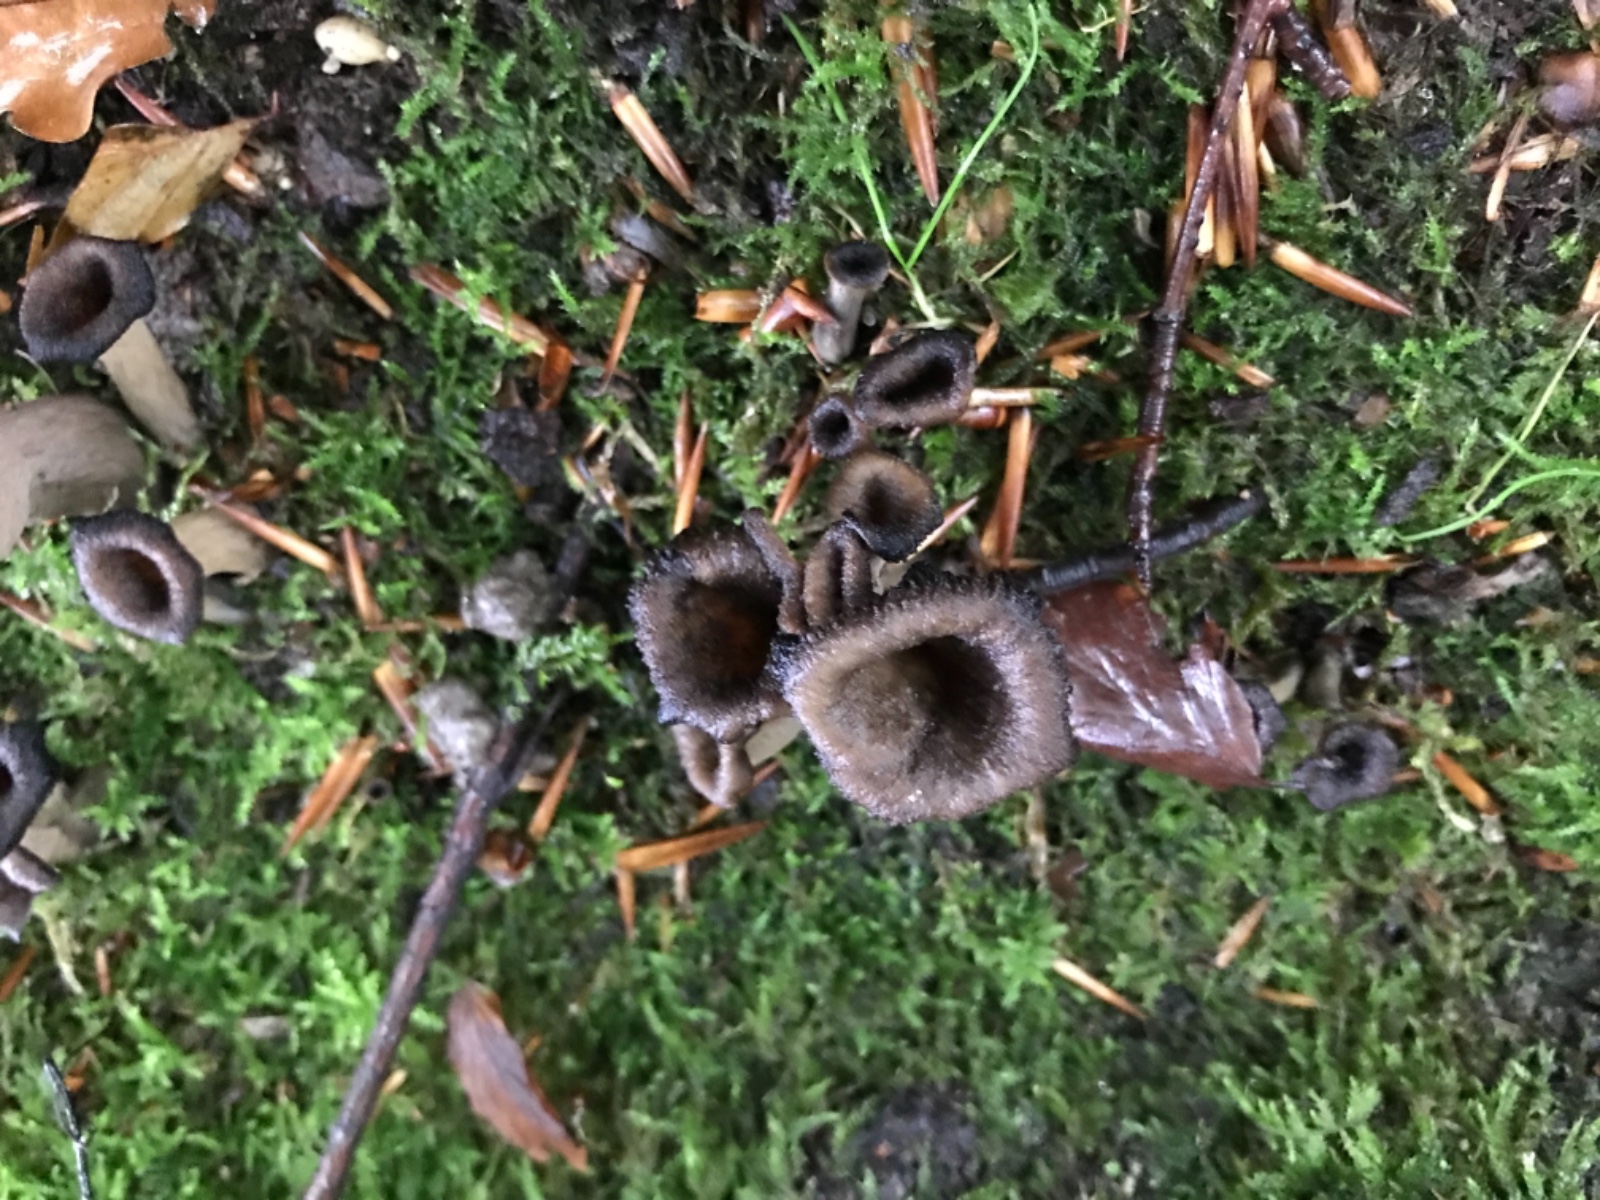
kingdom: Fungi
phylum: Basidiomycota
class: Agaricomycetes
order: Cantharellales
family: Hydnaceae
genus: Craterellus
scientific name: Craterellus cornucopioides
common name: trompetsvamp
